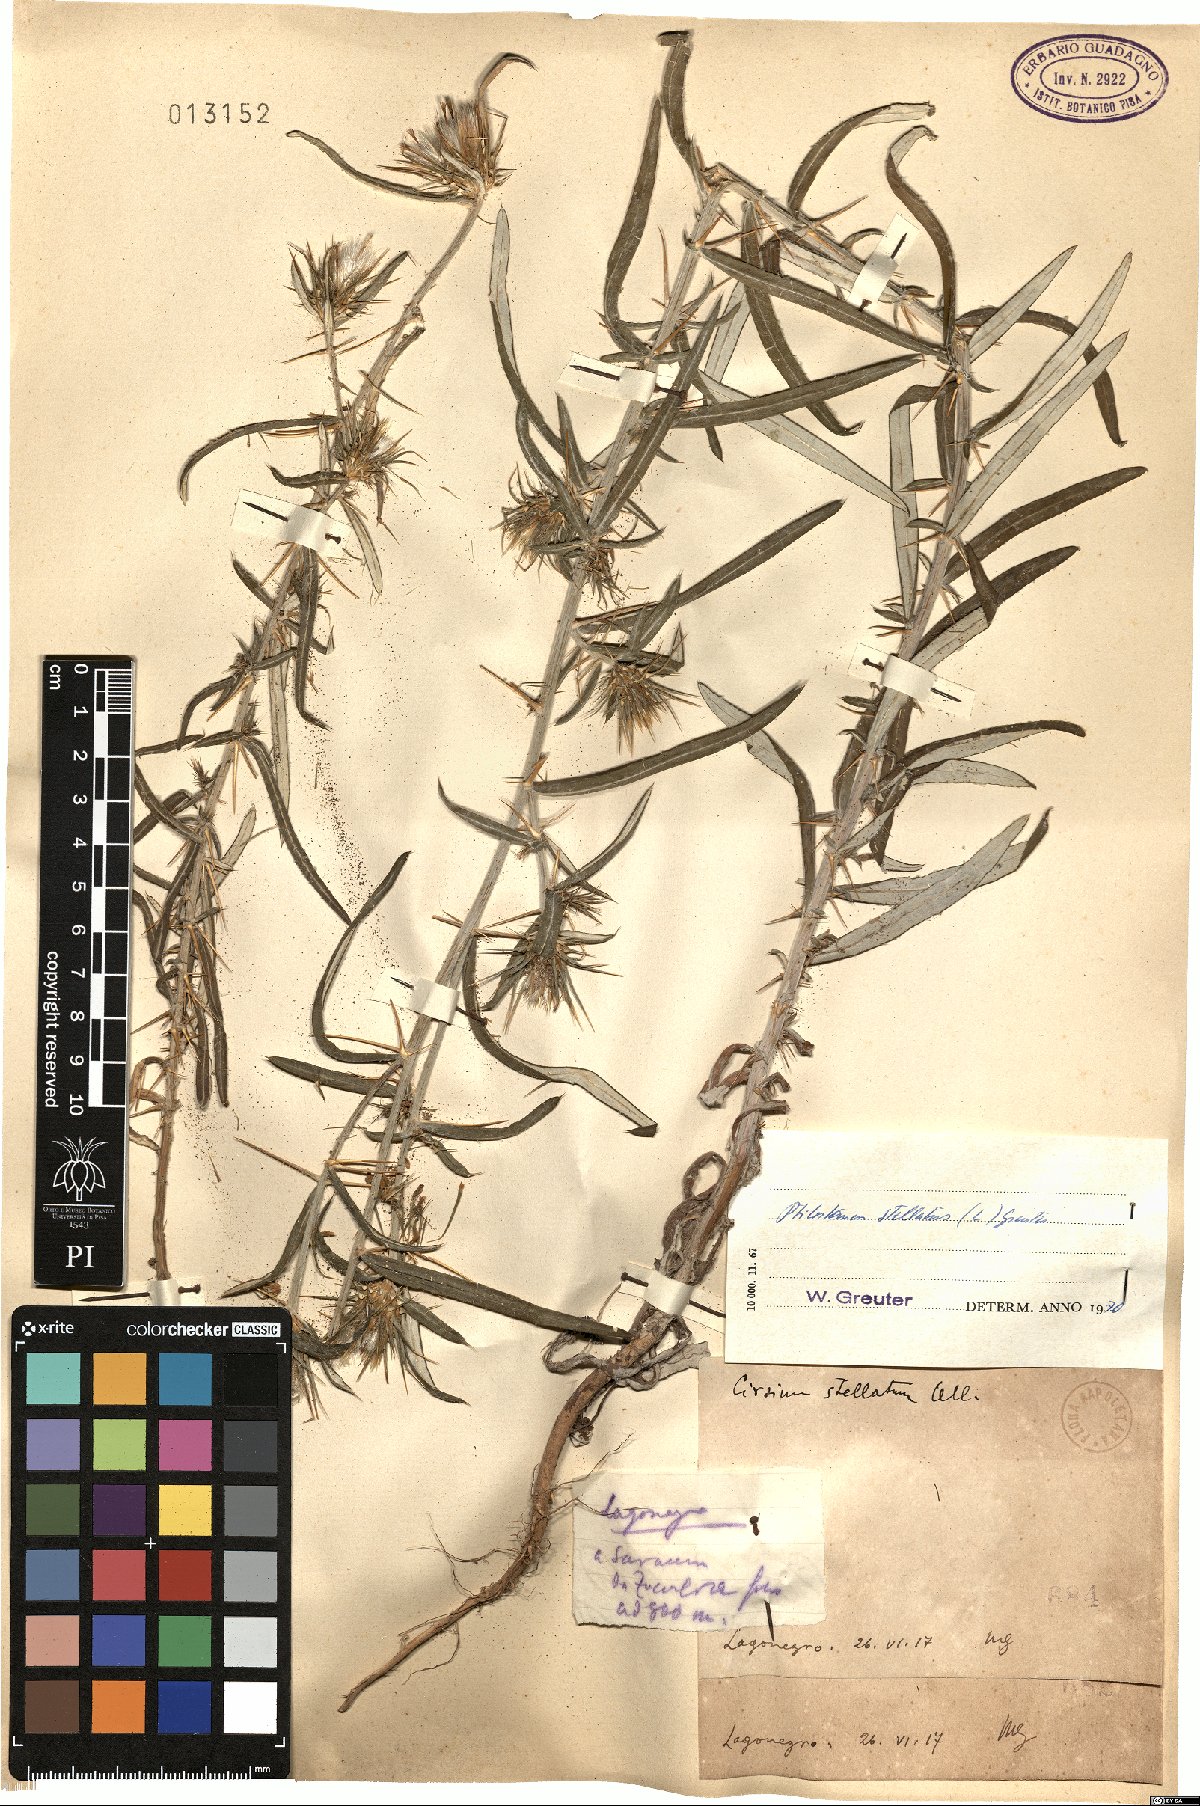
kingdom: Plantae
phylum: Tracheophyta
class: Magnoliopsida
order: Asterales
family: Asteraceae
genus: Ptilostemon
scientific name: Ptilostemon stellatus
